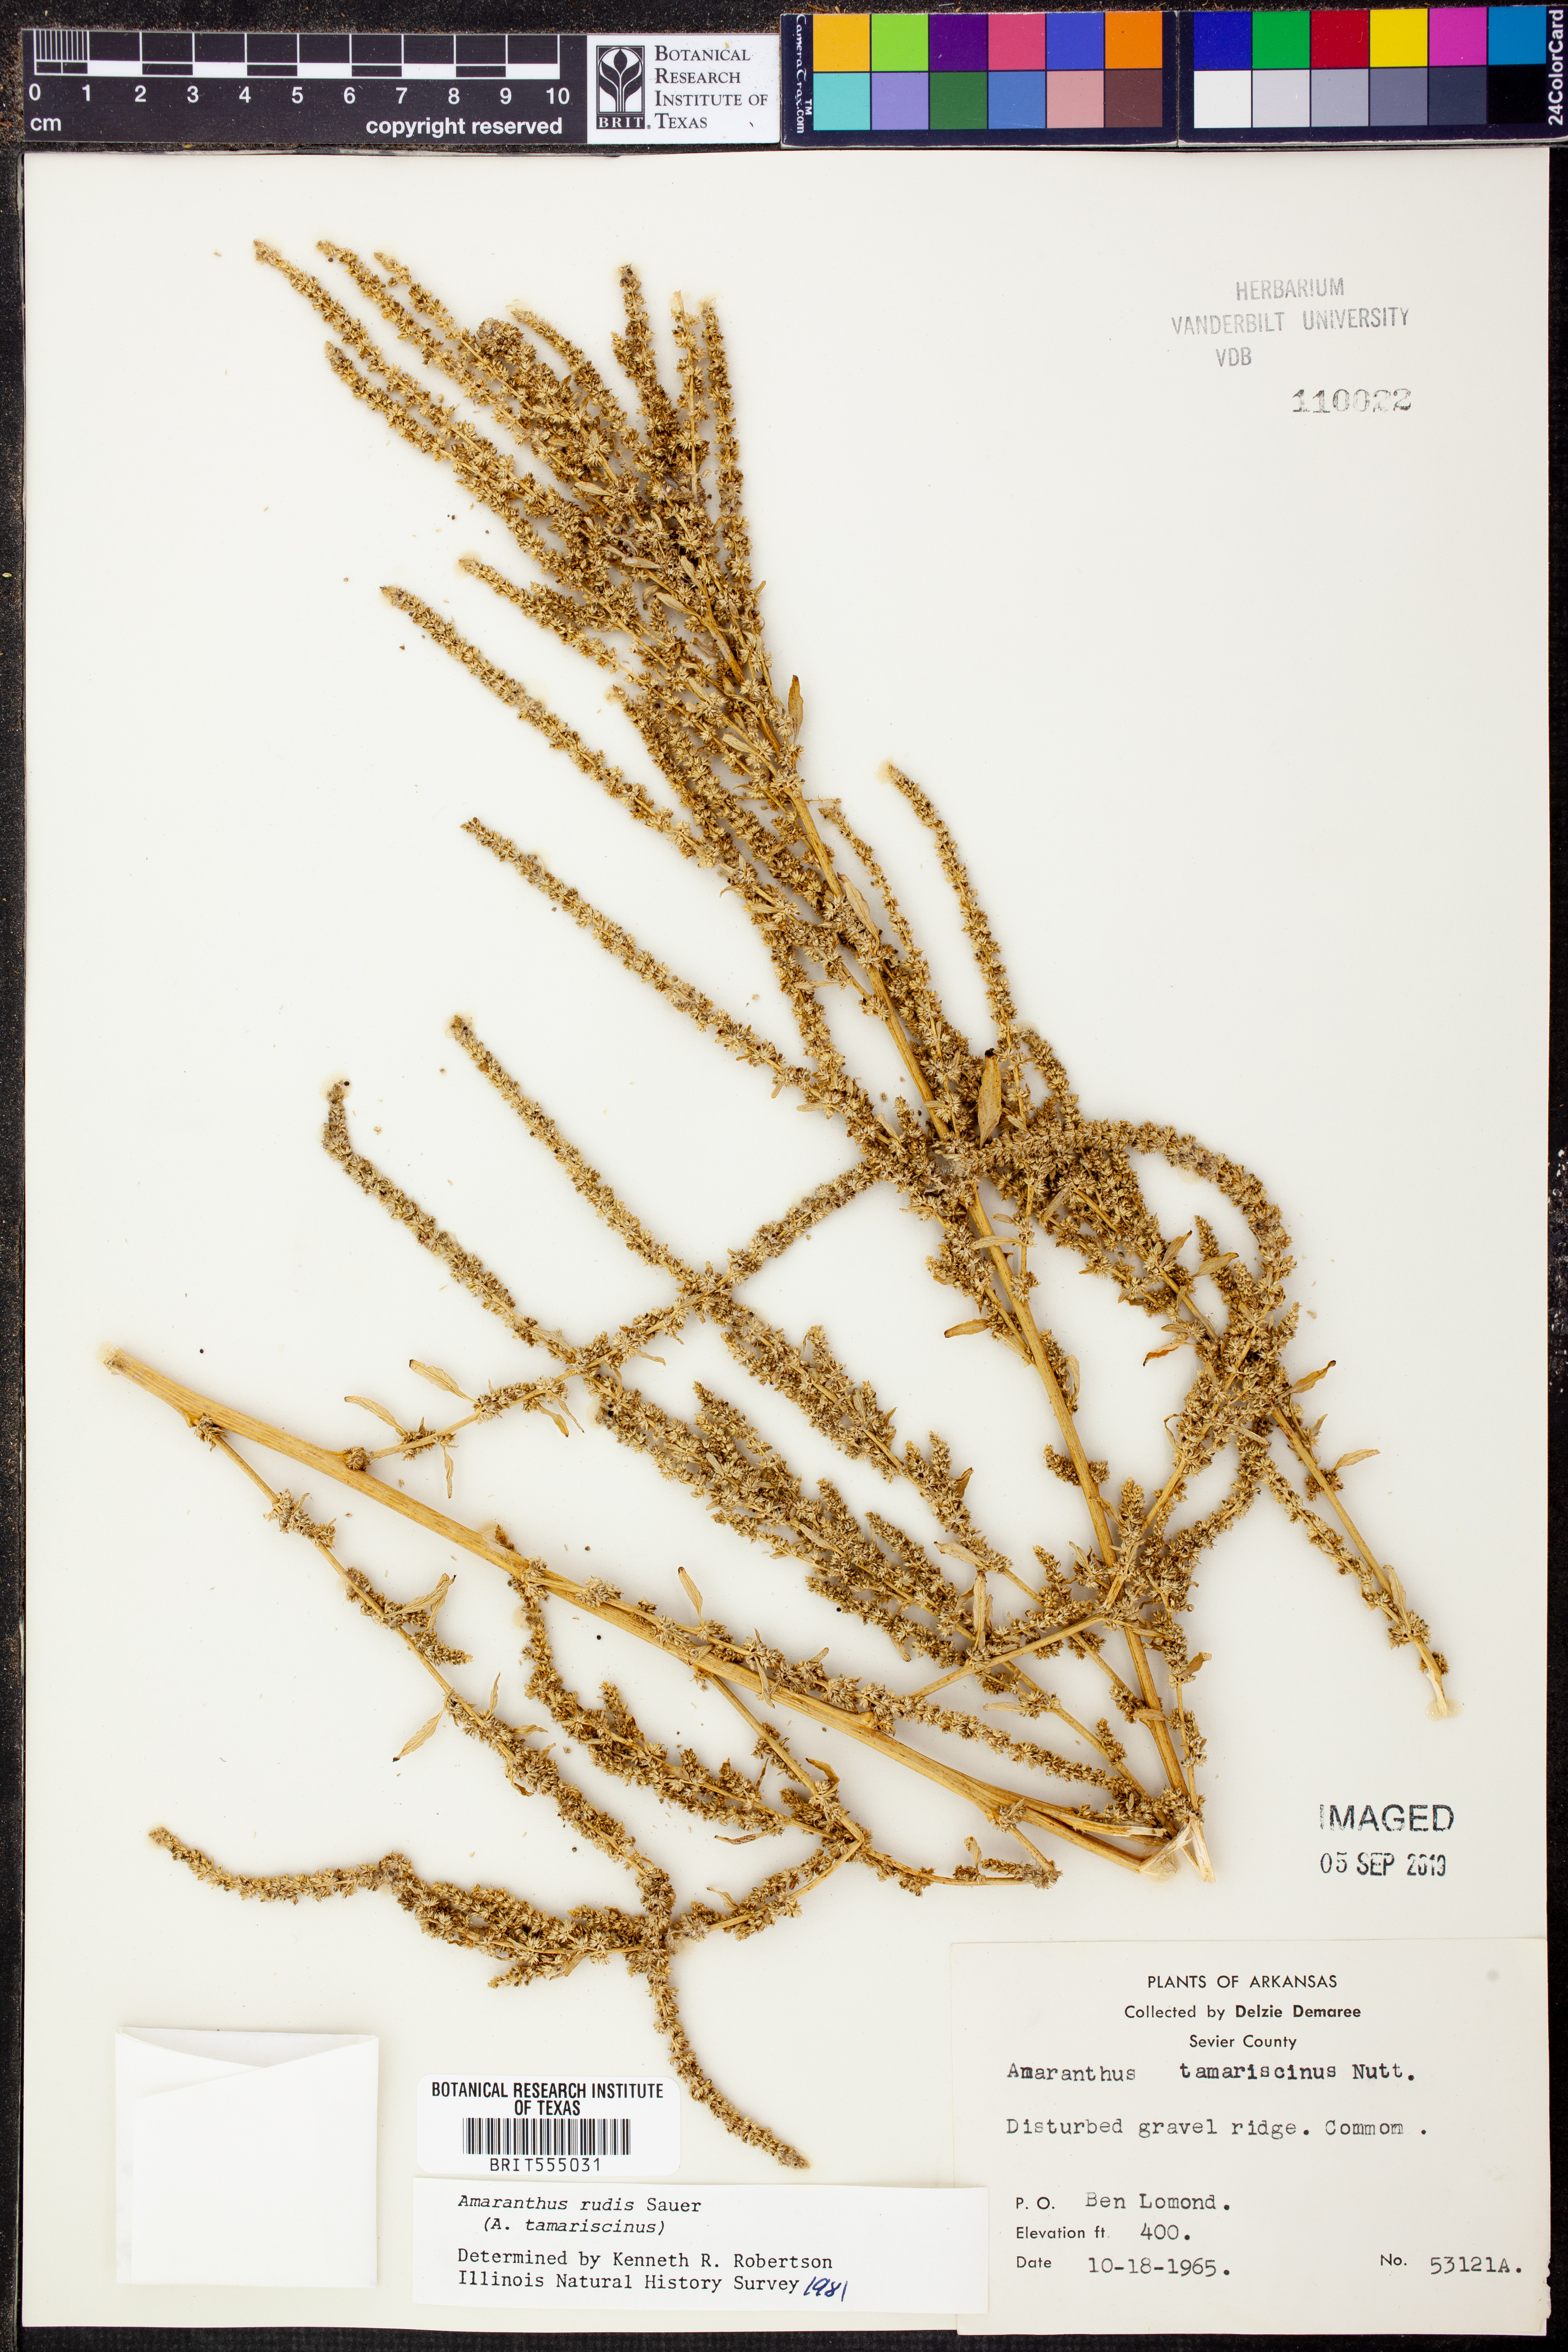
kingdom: Plantae
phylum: Tracheophyta
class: Magnoliopsida
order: Caryophyllales
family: Amaranthaceae
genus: Amaranthus
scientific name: Amaranthus tuberculatus
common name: Rough-fruit amaranth
